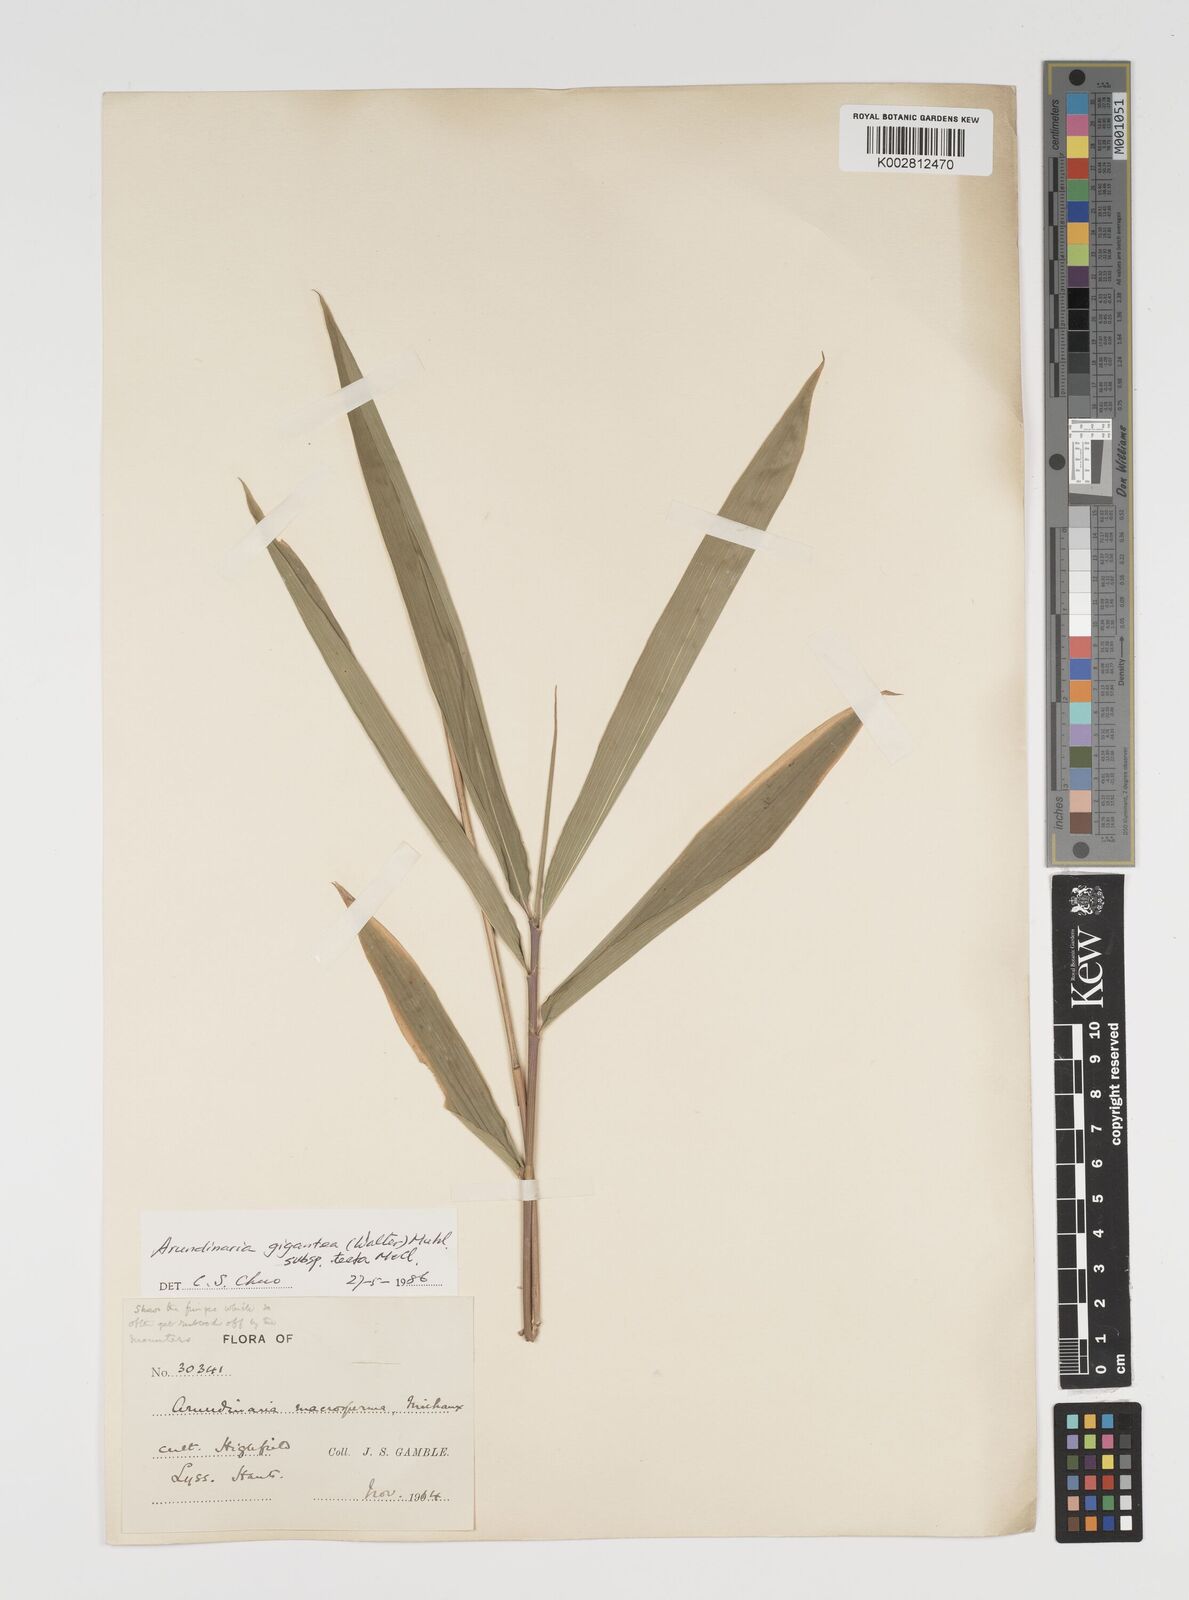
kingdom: Plantae
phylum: Tracheophyta
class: Liliopsida
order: Poales
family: Poaceae
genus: Arundinaria
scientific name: Arundinaria tecta
